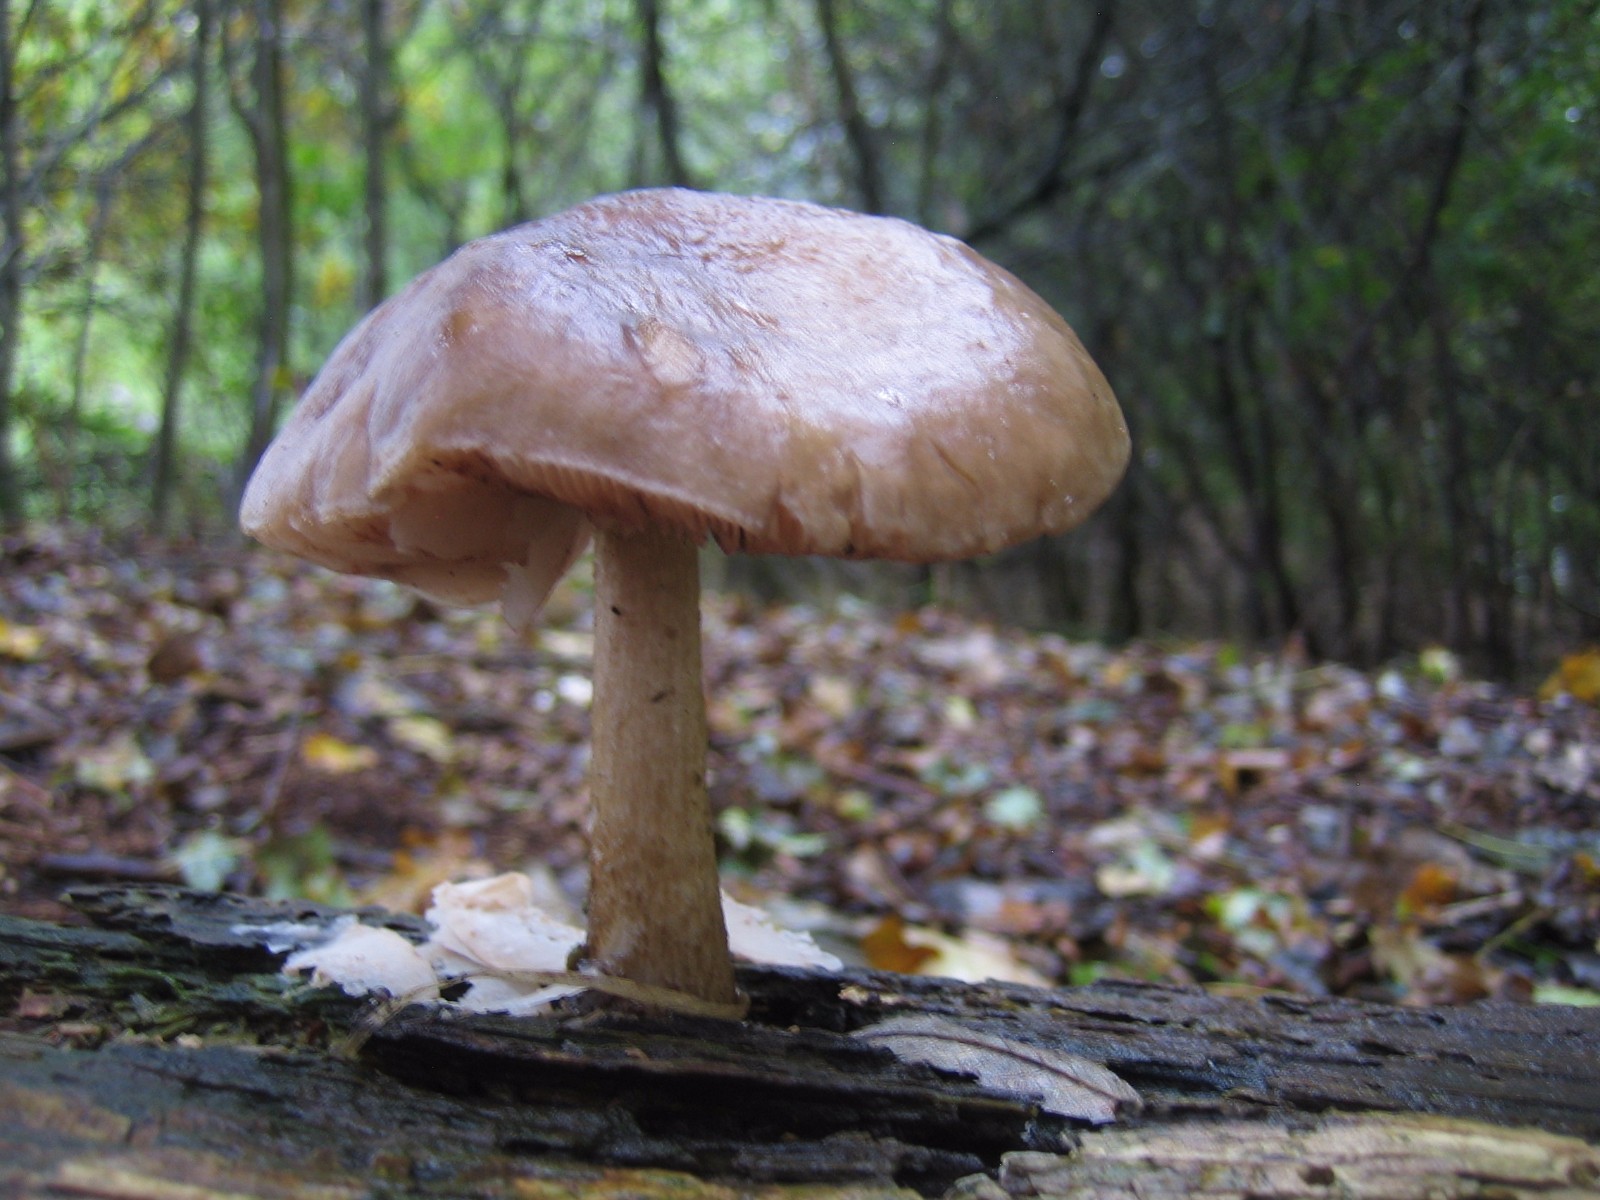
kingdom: Fungi
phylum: Basidiomycota
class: Agaricomycetes
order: Agaricales
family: Pluteaceae
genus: Pluteus
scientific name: Pluteus cervinus
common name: sodfarvet skærmhat
